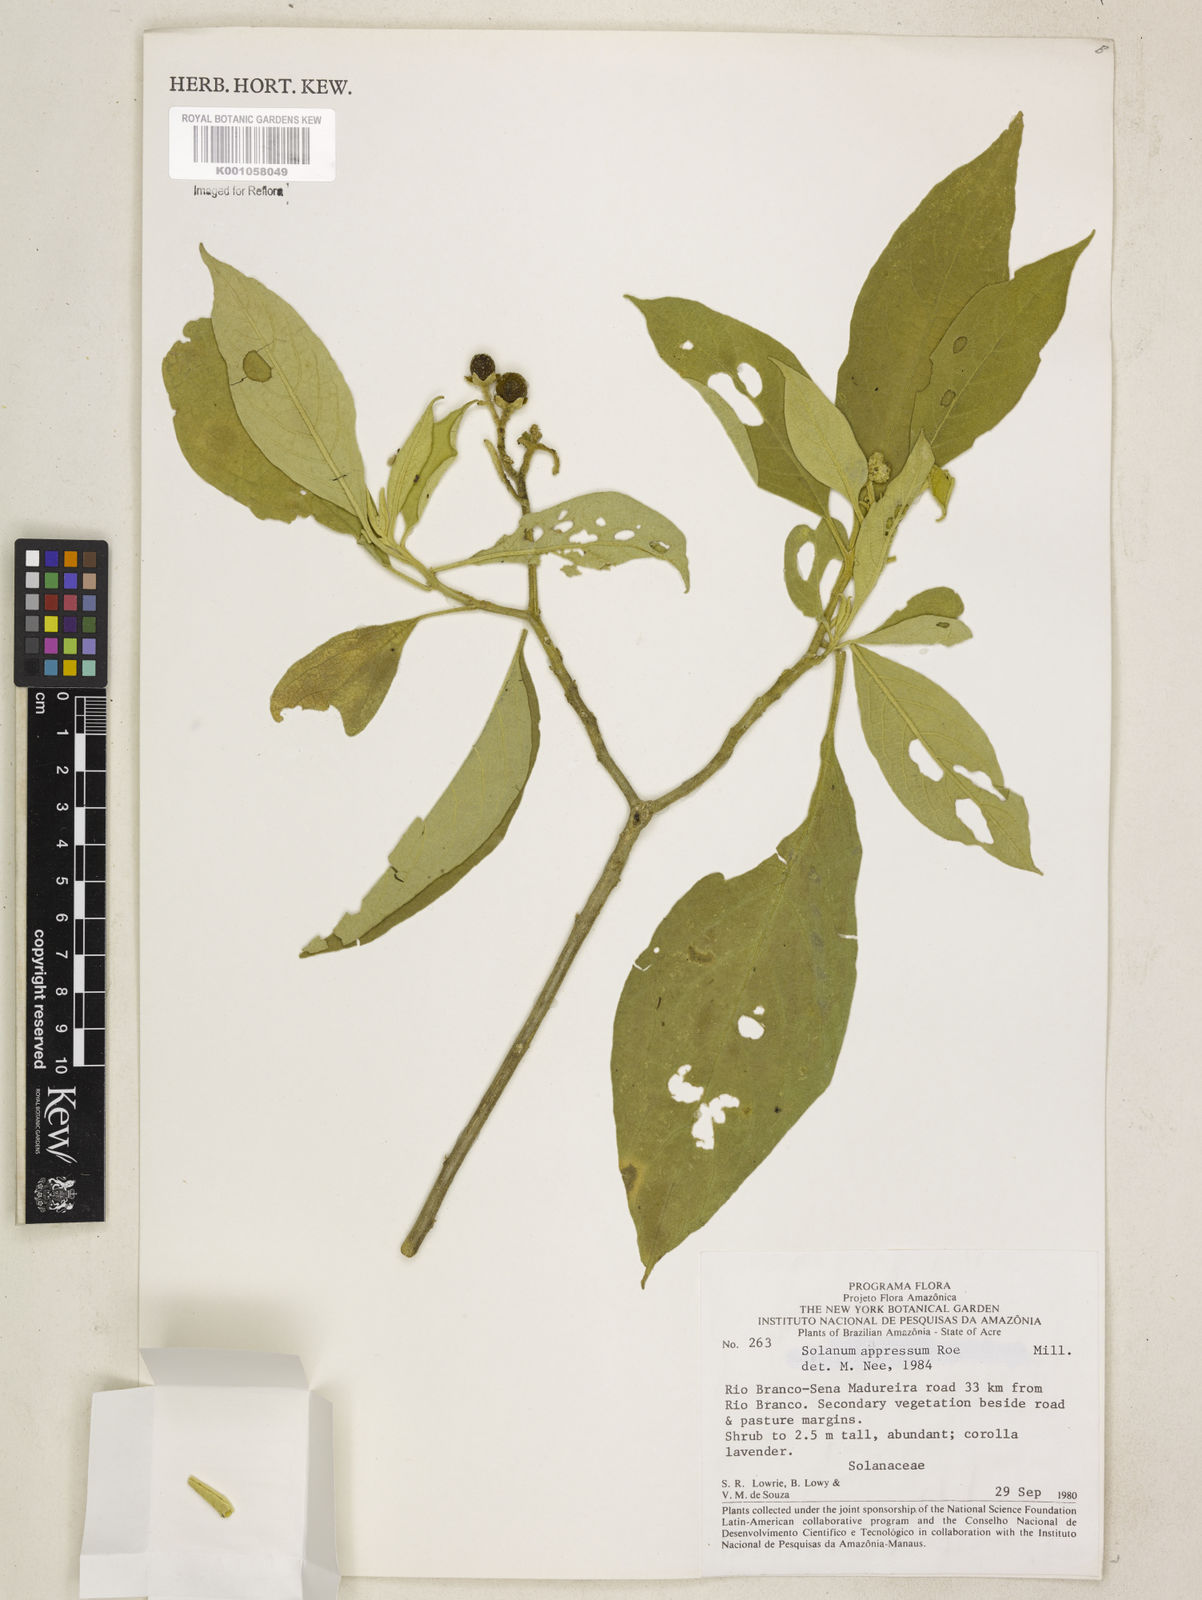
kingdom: Plantae
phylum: Tracheophyta
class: Magnoliopsida
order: Solanales
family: Solanaceae
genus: Solanum
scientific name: Solanum appressum
